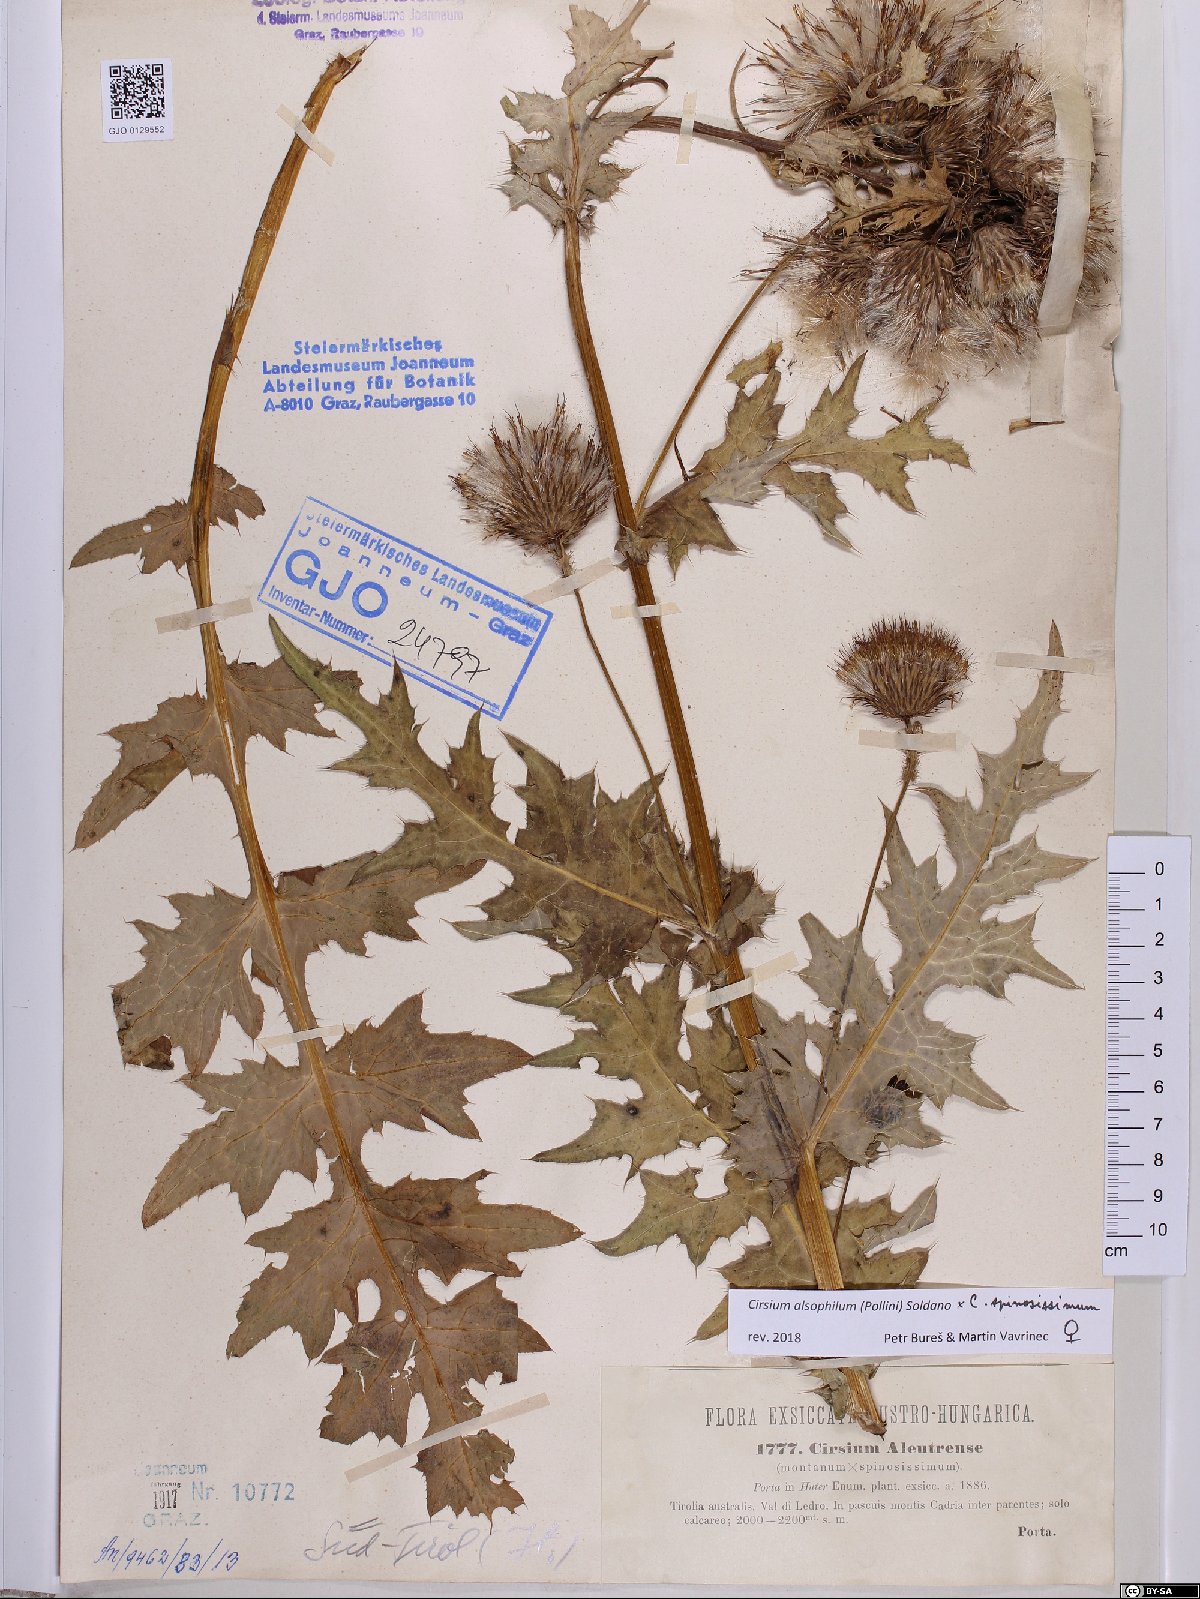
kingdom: Plantae
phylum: Tracheophyta
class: Magnoliopsida
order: Asterales
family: Asteraceae
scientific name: Asteraceae
